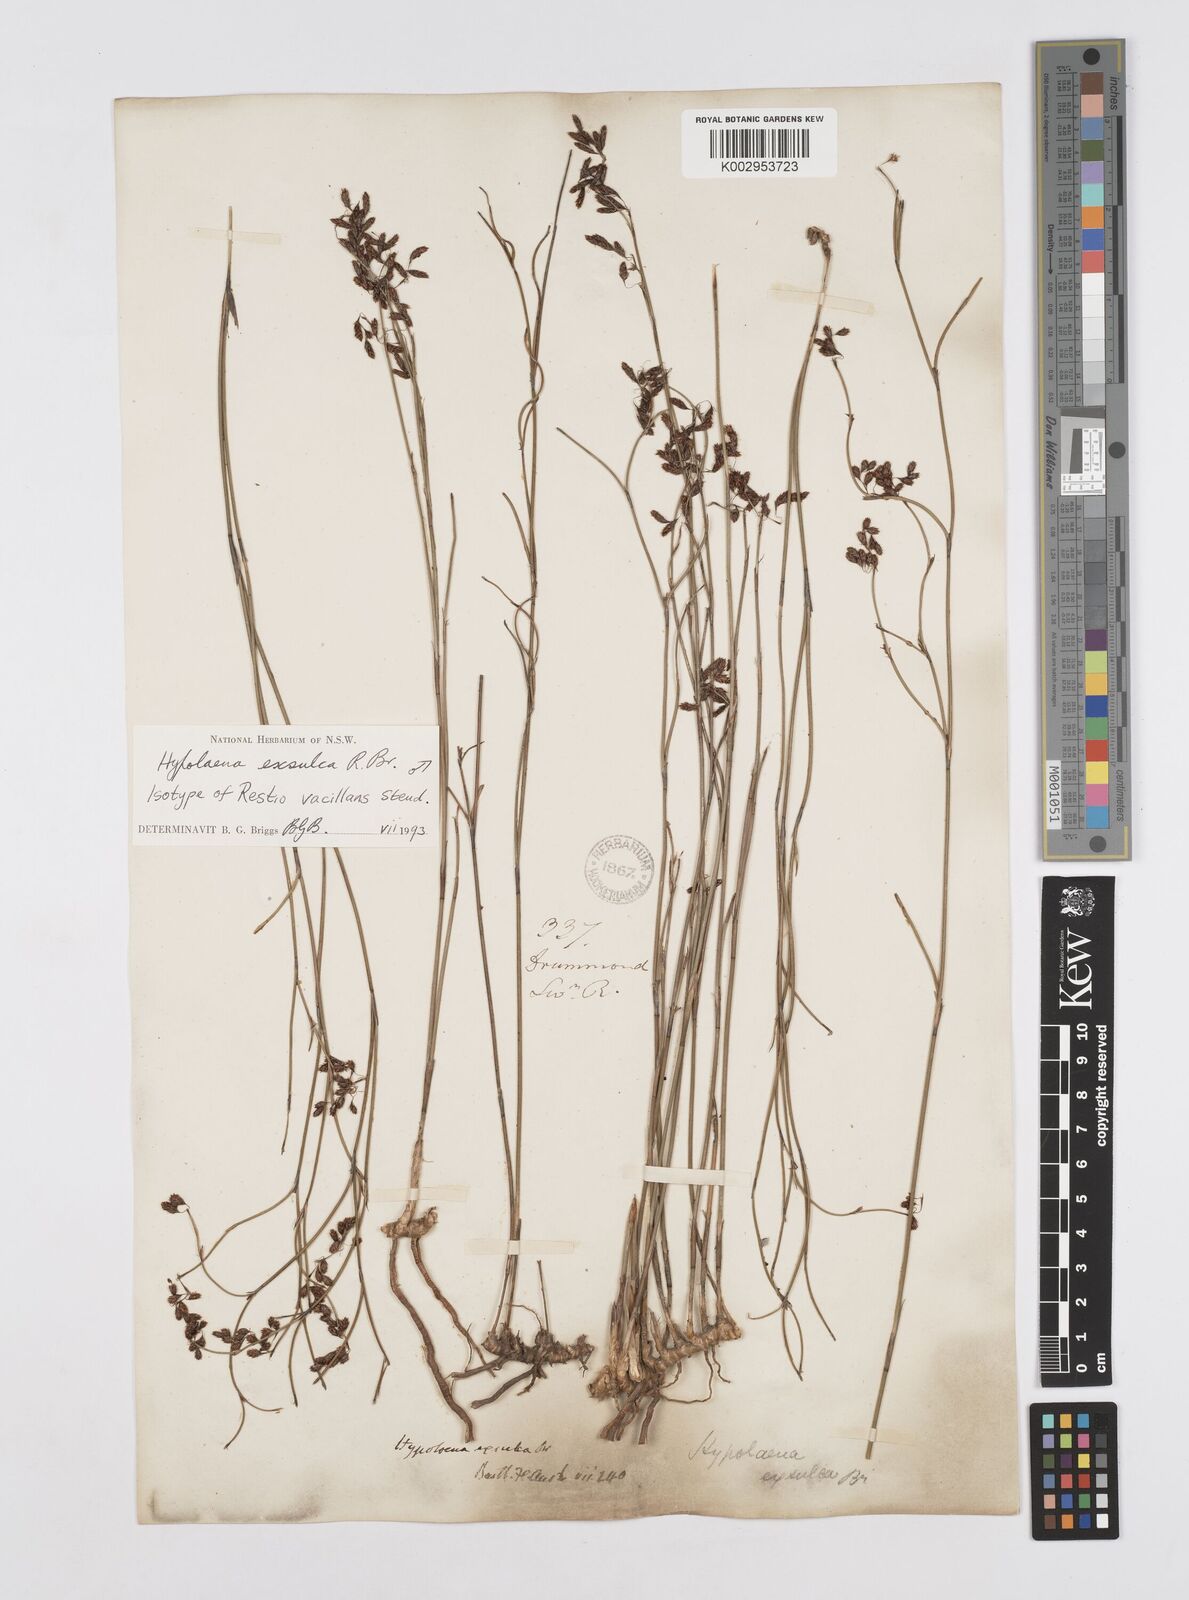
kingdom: Plantae
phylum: Tracheophyta
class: Liliopsida
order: Poales
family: Restionaceae
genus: Hypolaena
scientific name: Hypolaena exsulca
